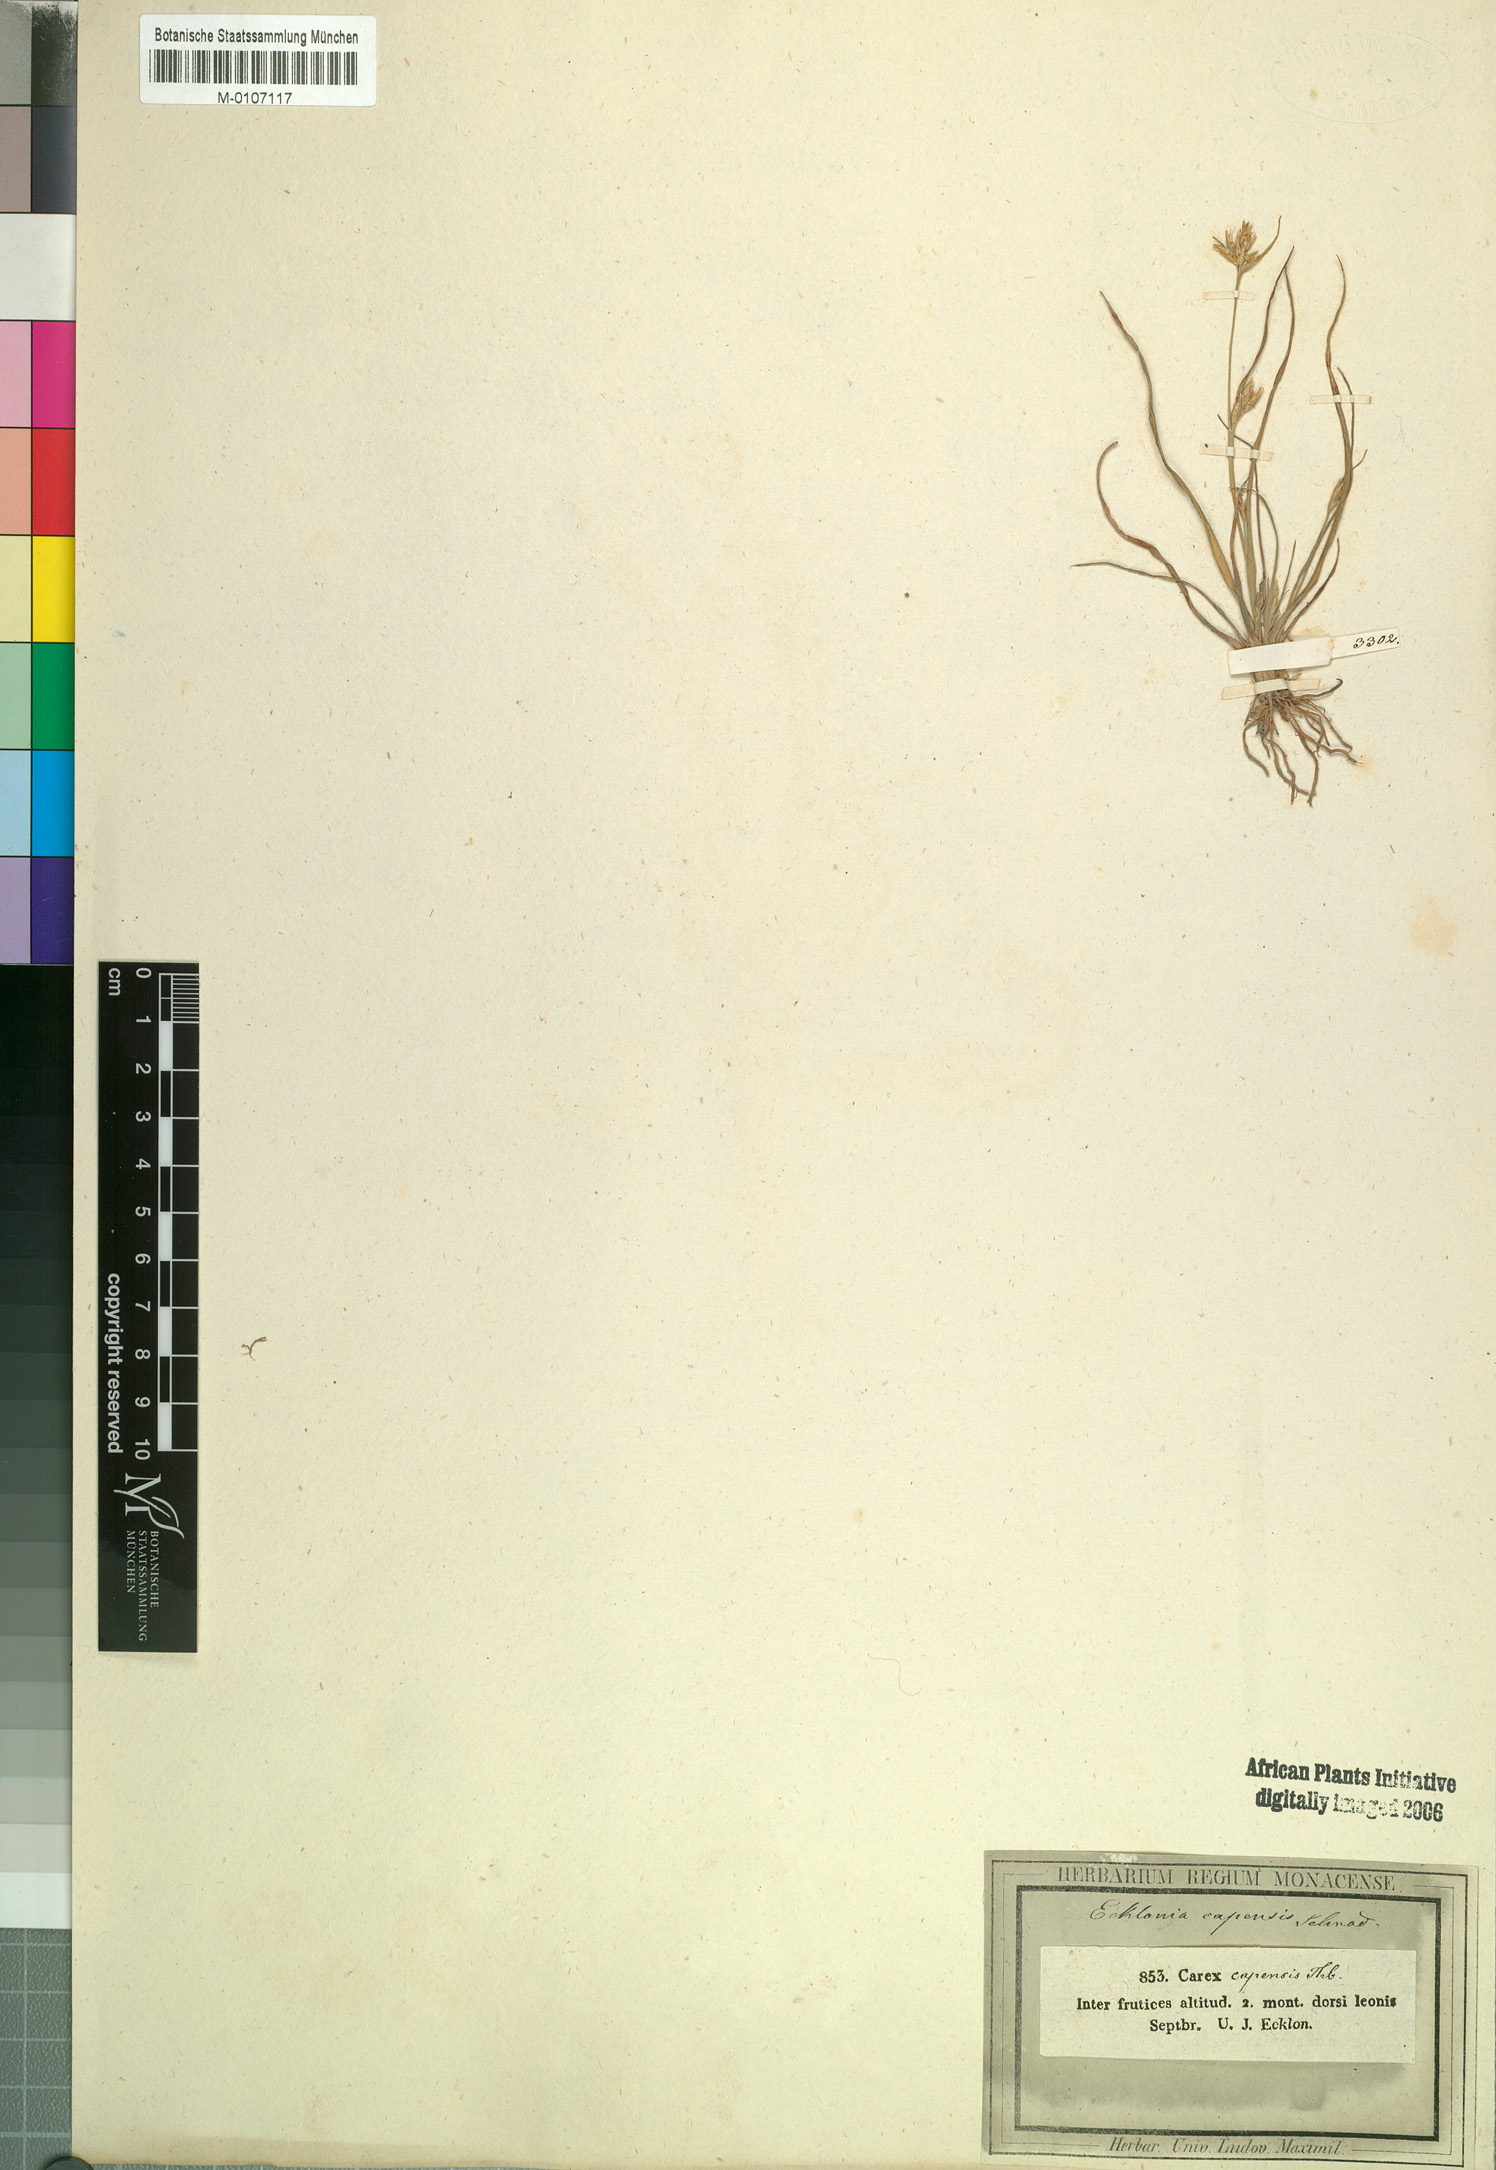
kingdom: Plantae
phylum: Tracheophyta
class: Liliopsida
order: Poales
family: Cyperaceae
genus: Trianoptiles
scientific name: Trianoptiles capensis
